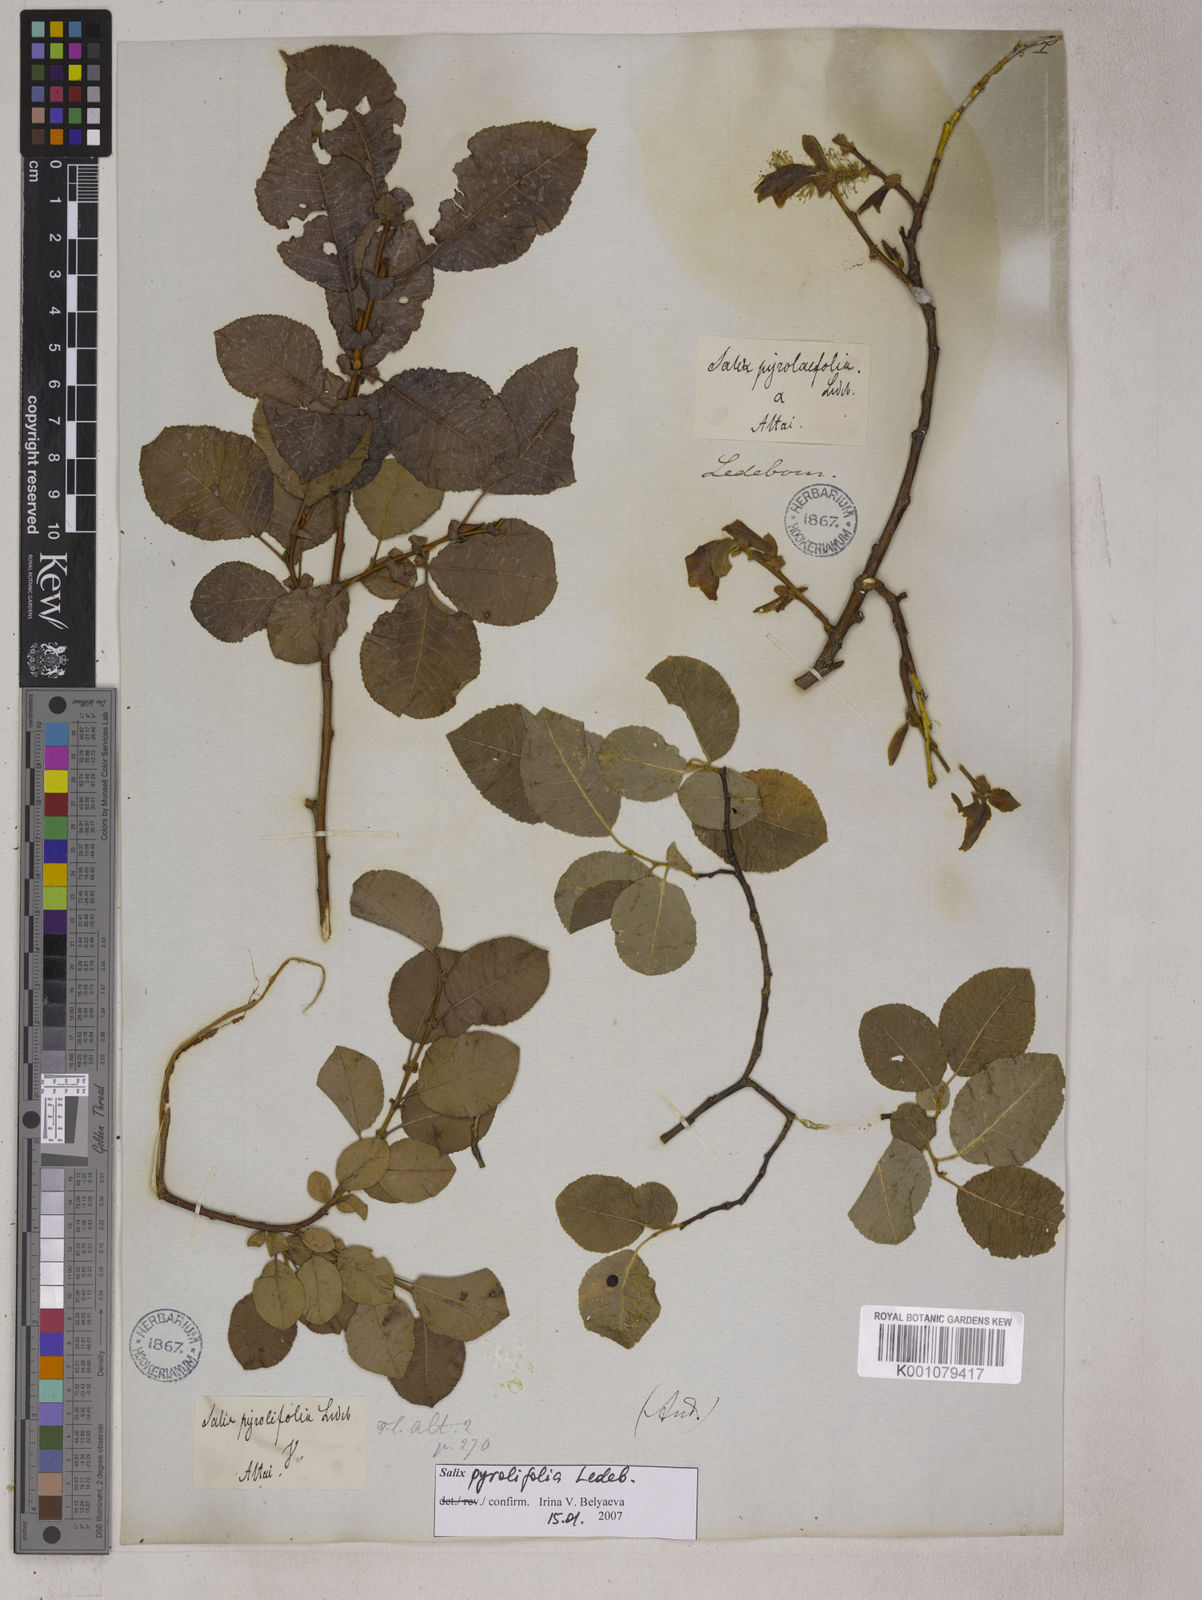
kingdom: Plantae
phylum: Tracheophyta
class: Magnoliopsida
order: Malpighiales
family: Salicaceae
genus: Salix
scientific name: Salix pyrolifolia
